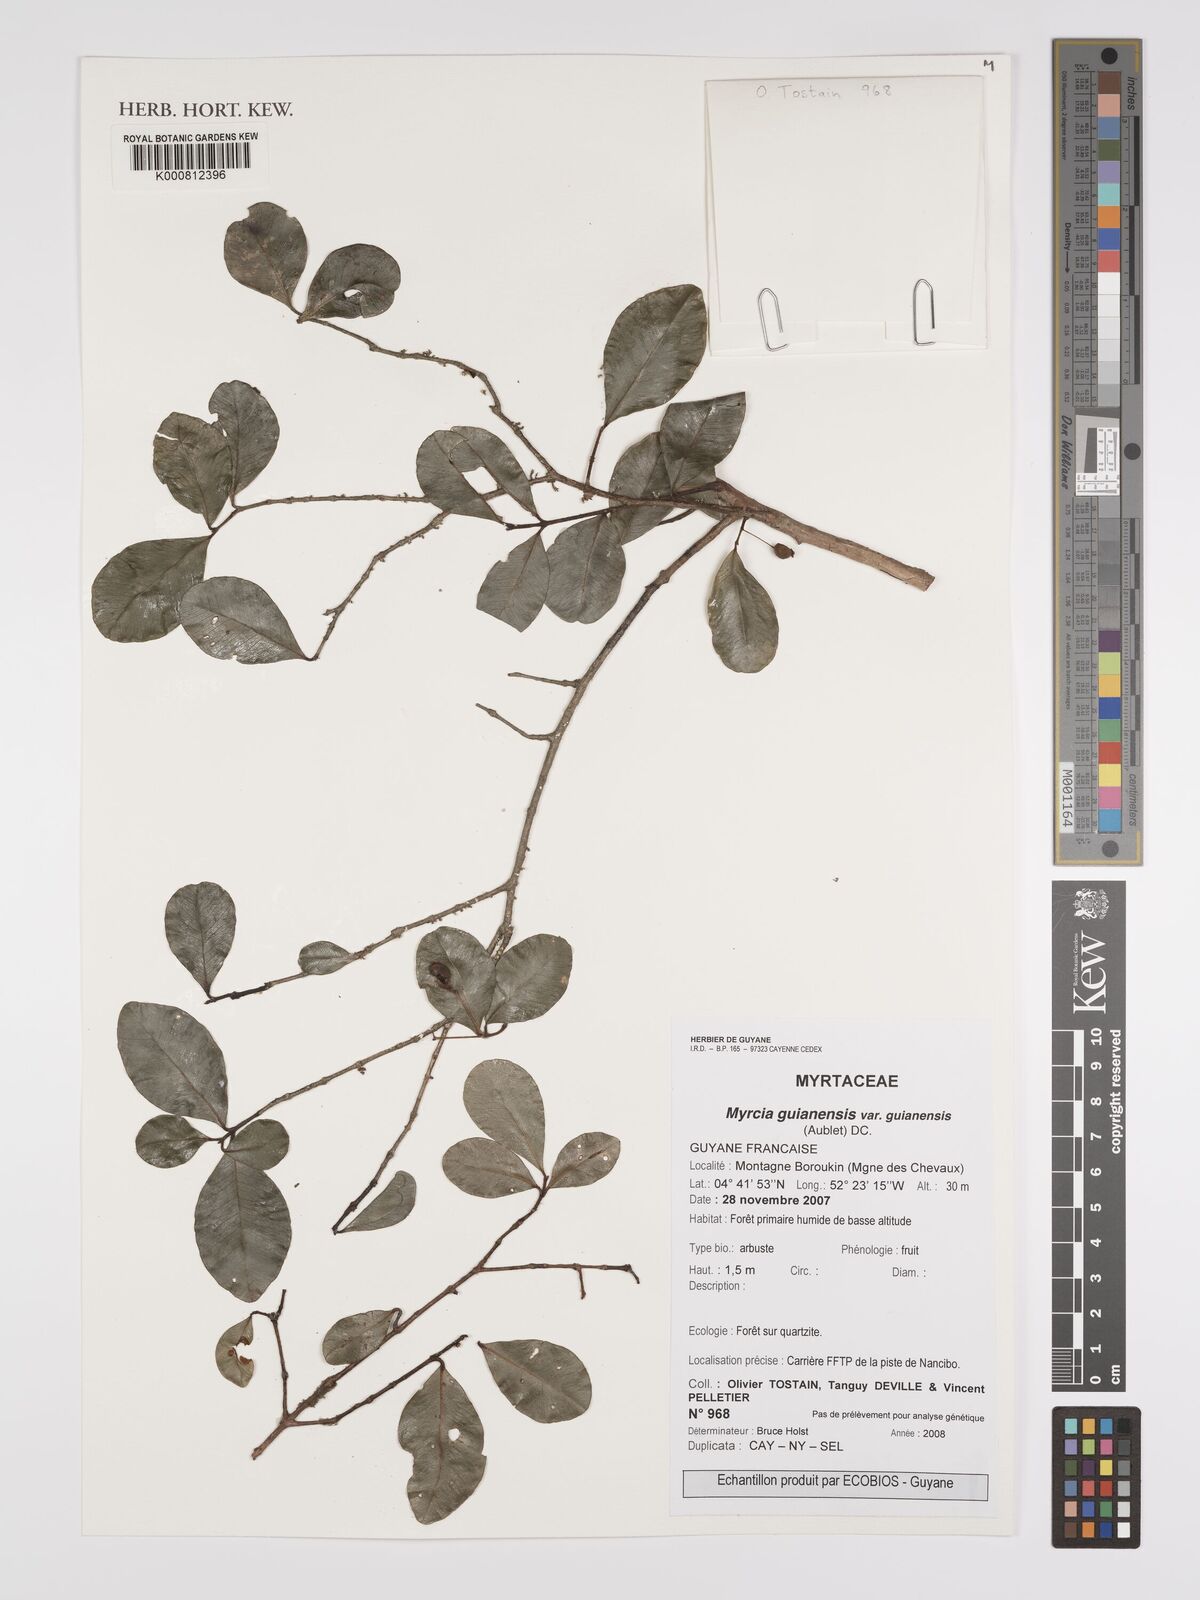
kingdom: Plantae
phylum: Tracheophyta
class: Magnoliopsida
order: Myrtales
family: Myrtaceae
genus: Myrcia
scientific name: Myrcia guianensis
